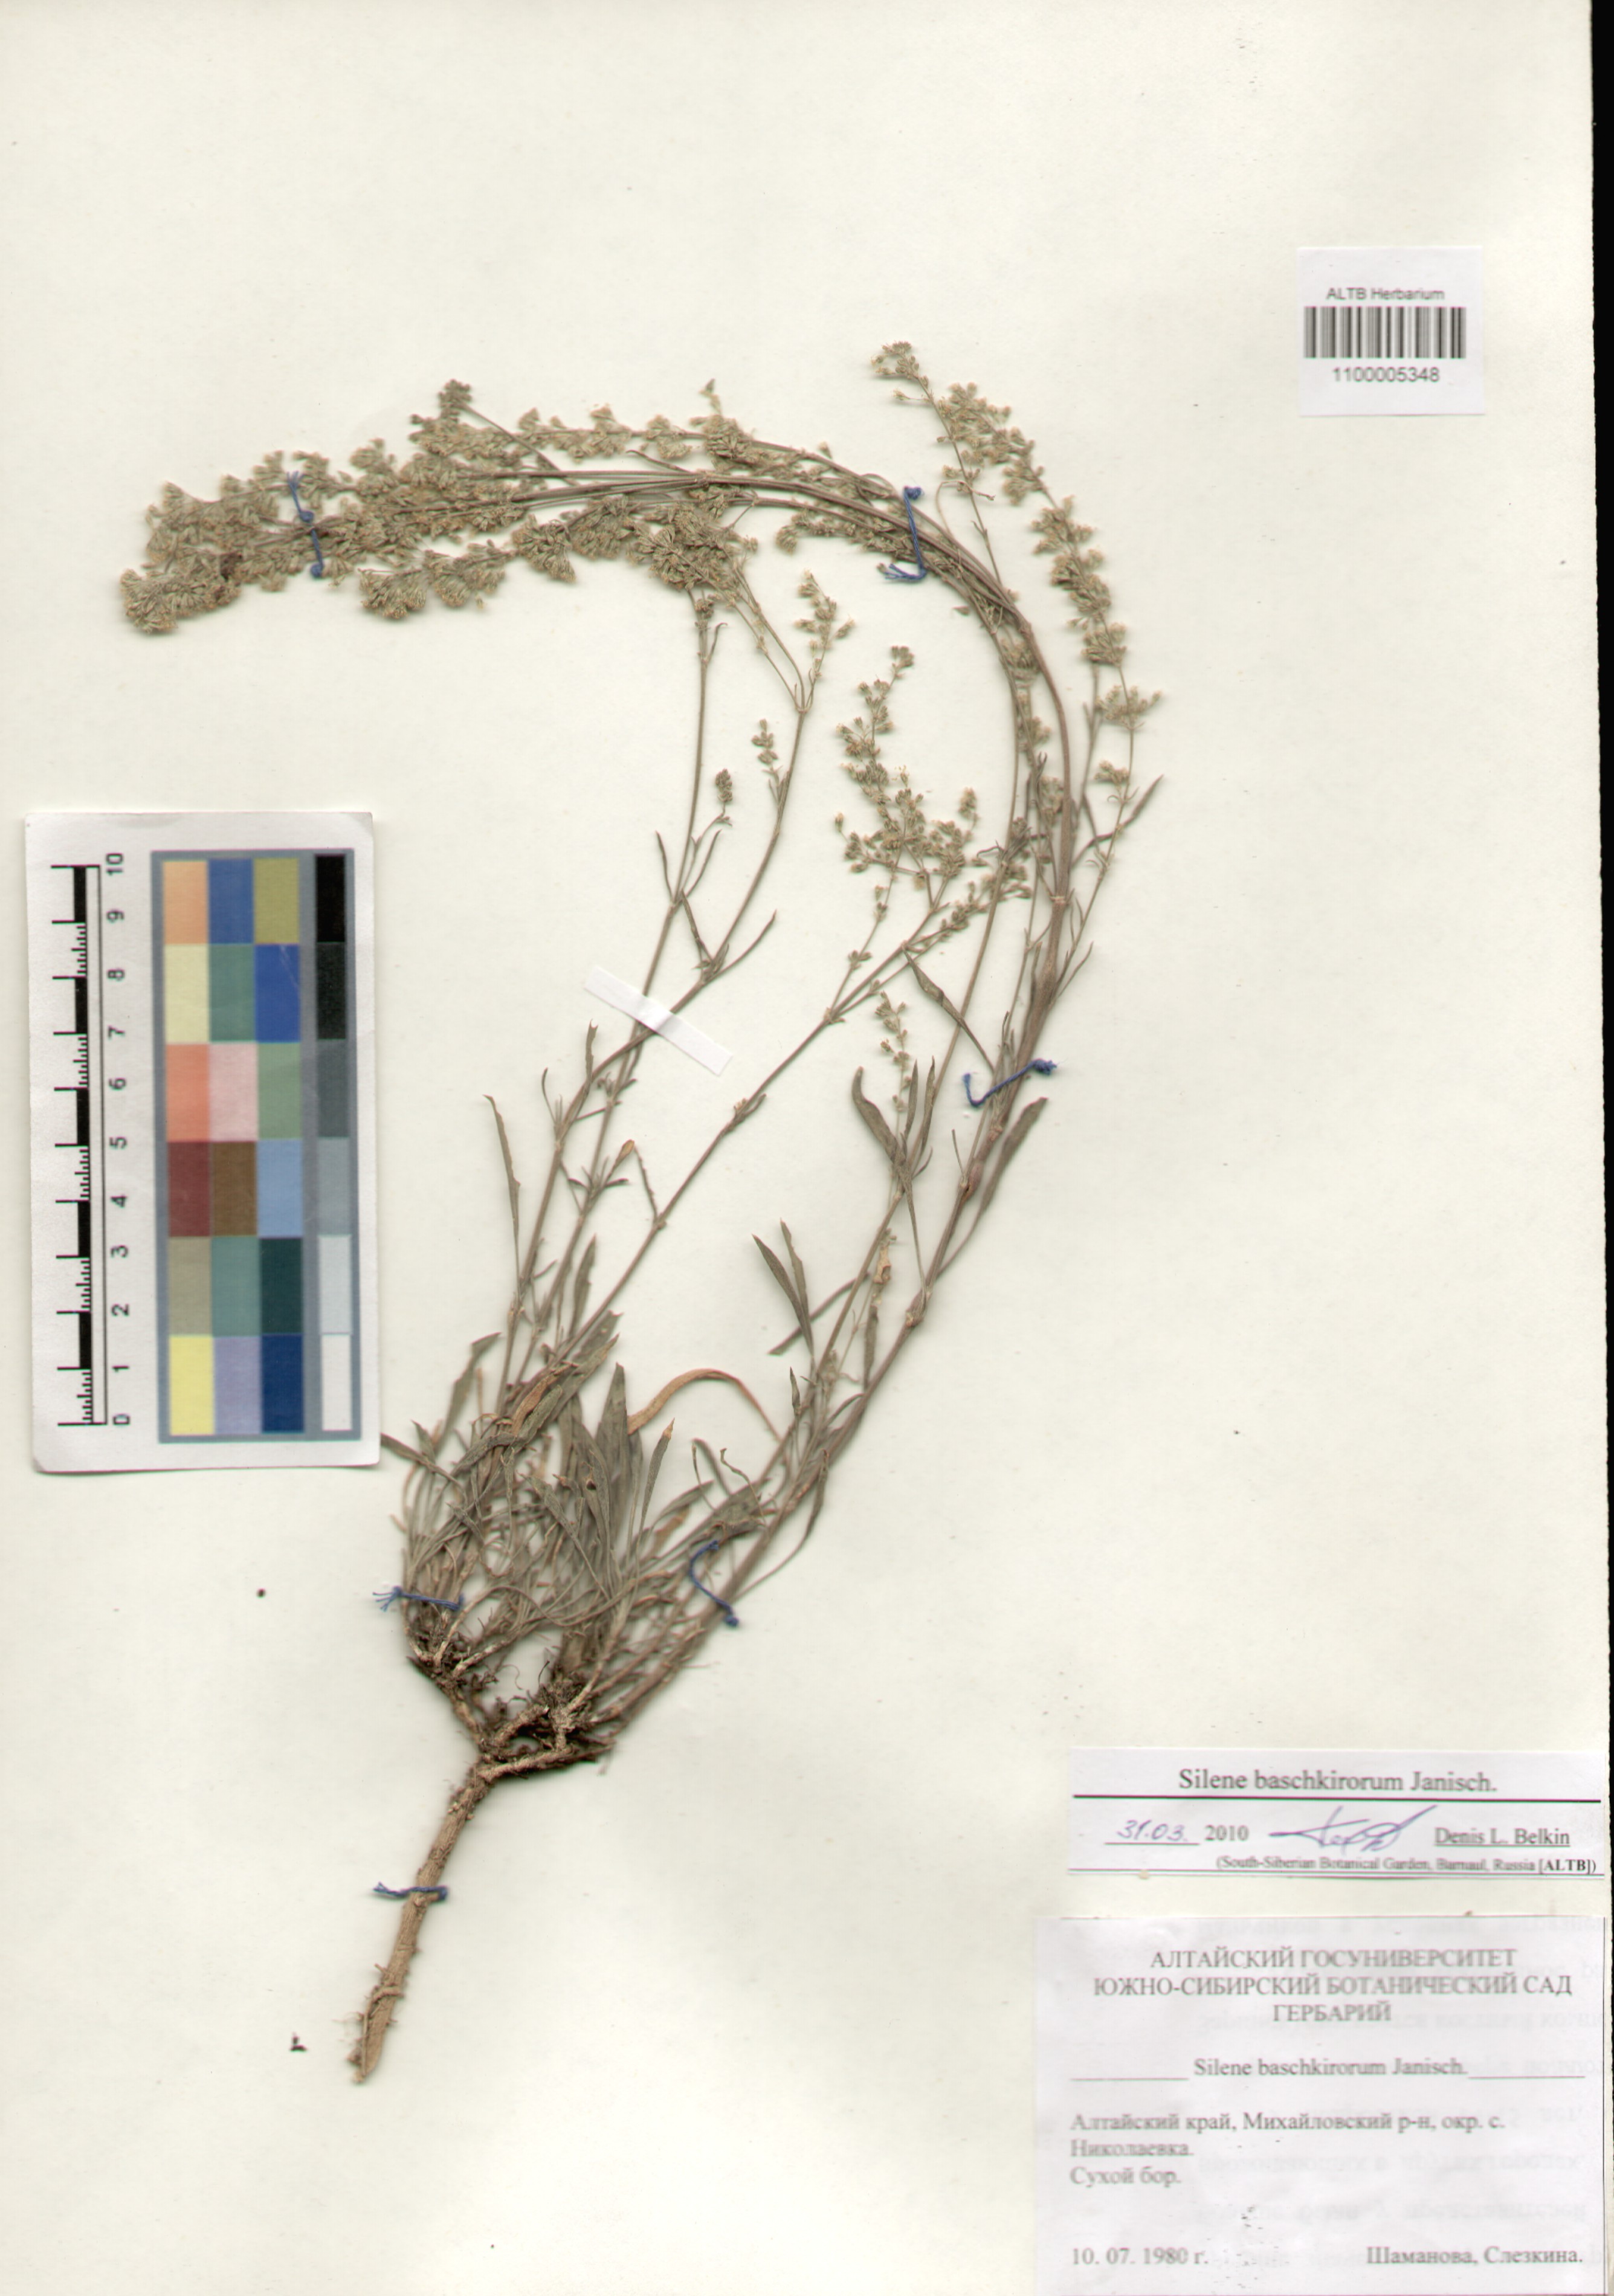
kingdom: Plantae
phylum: Tracheophyta
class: Magnoliopsida
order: Caryophyllales
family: Caryophyllaceae
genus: Silene
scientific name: Silene baschkirorum
